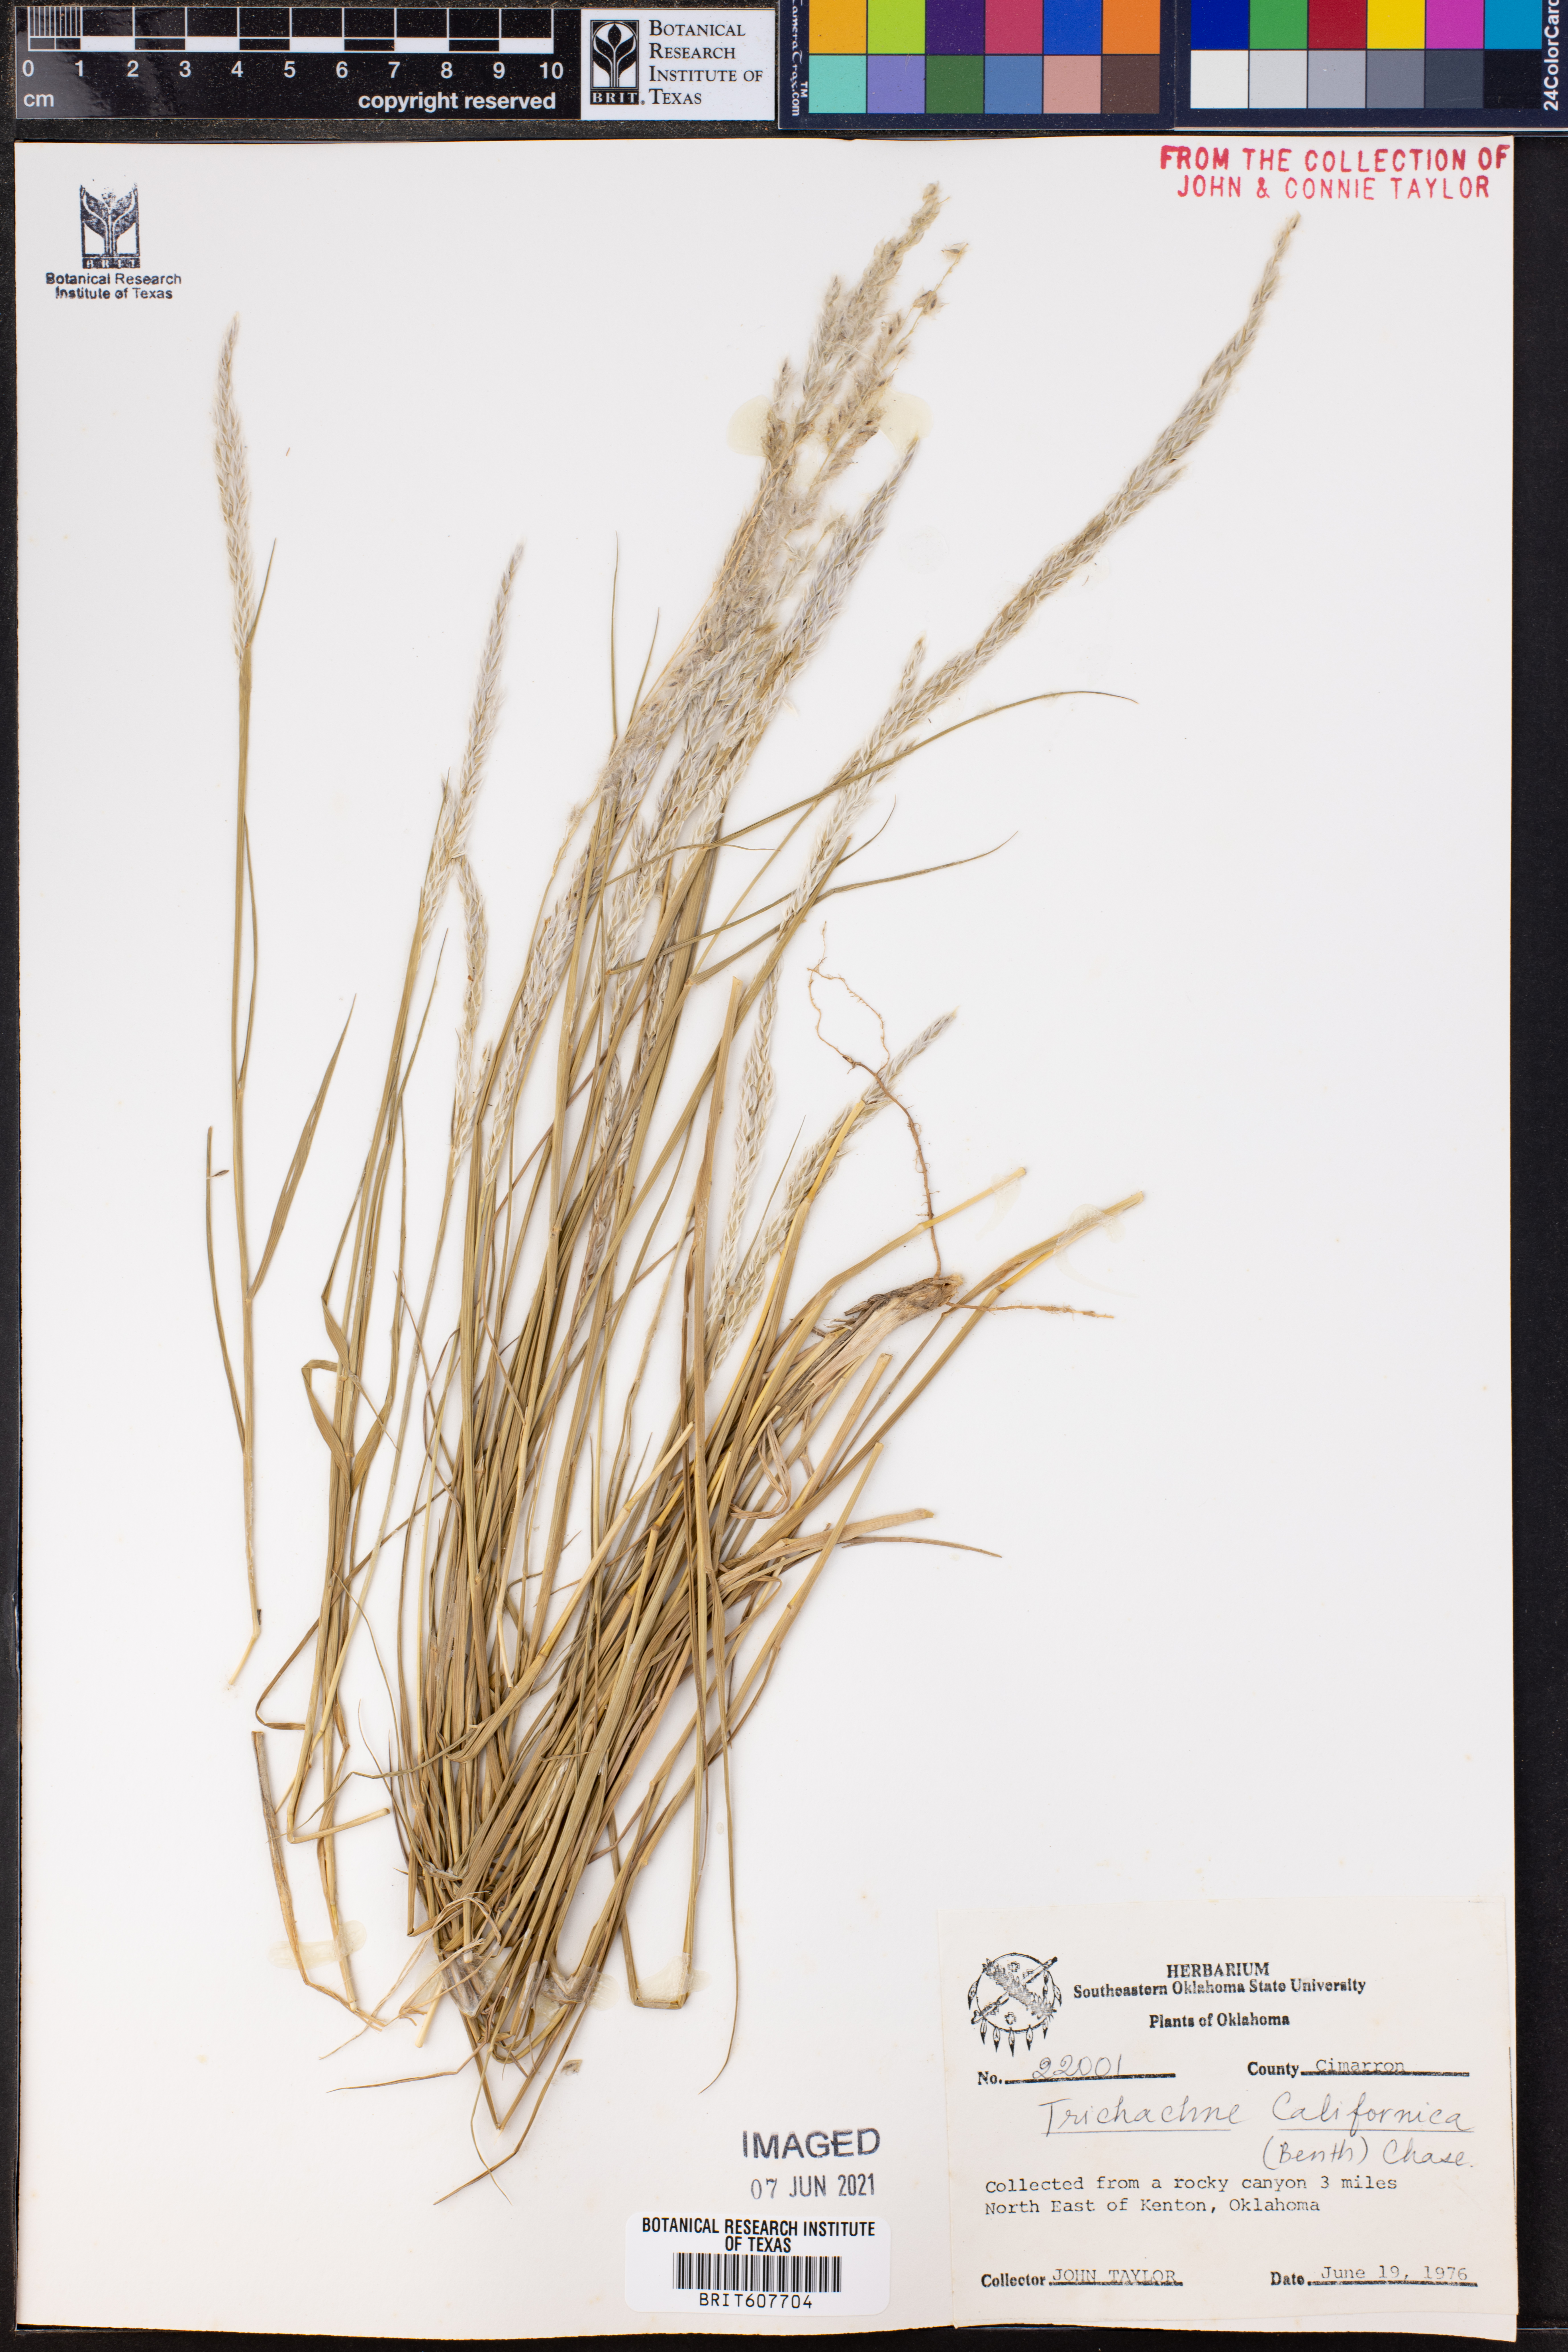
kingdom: Plantae
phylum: Tracheophyta
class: Liliopsida
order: Poales
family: Poaceae
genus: Digitaria
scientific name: Digitaria californica
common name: Arizona cottontop
